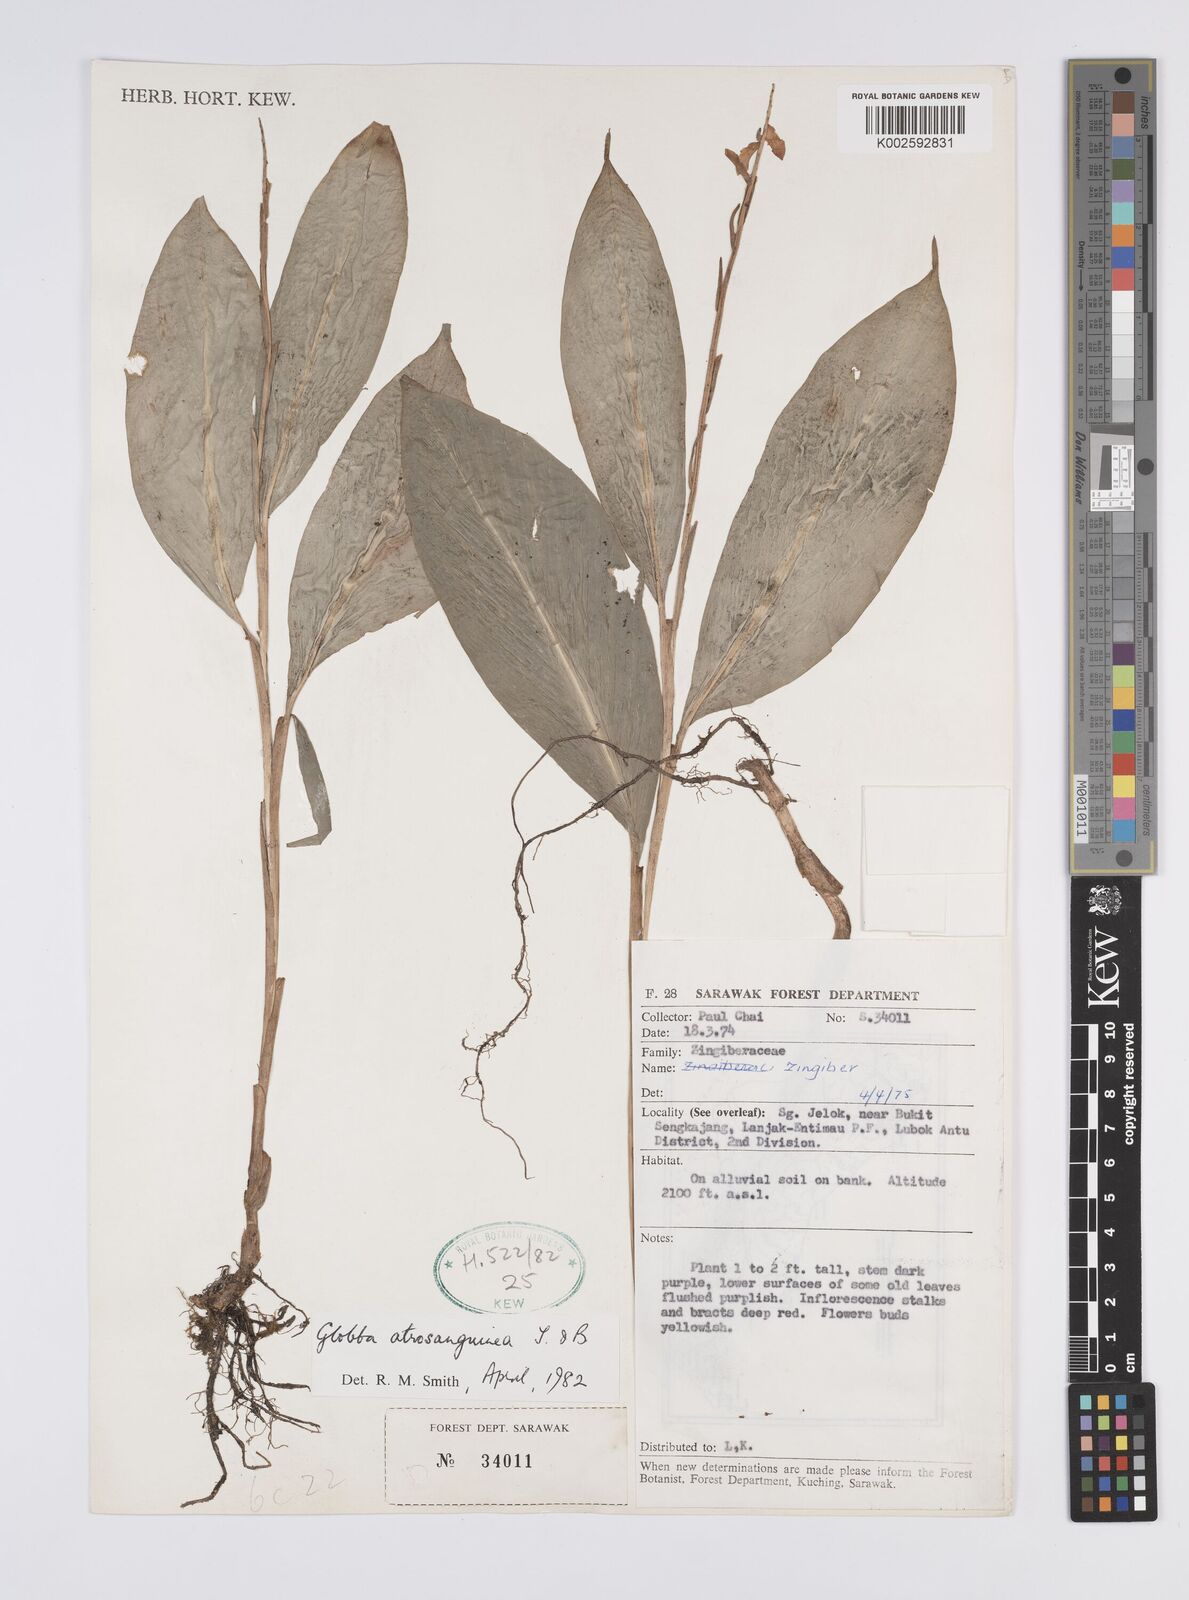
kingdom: Plantae
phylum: Tracheophyta
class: Liliopsida
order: Zingiberales
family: Zingiberaceae
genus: Globba
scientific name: Globba atrosanguinea
